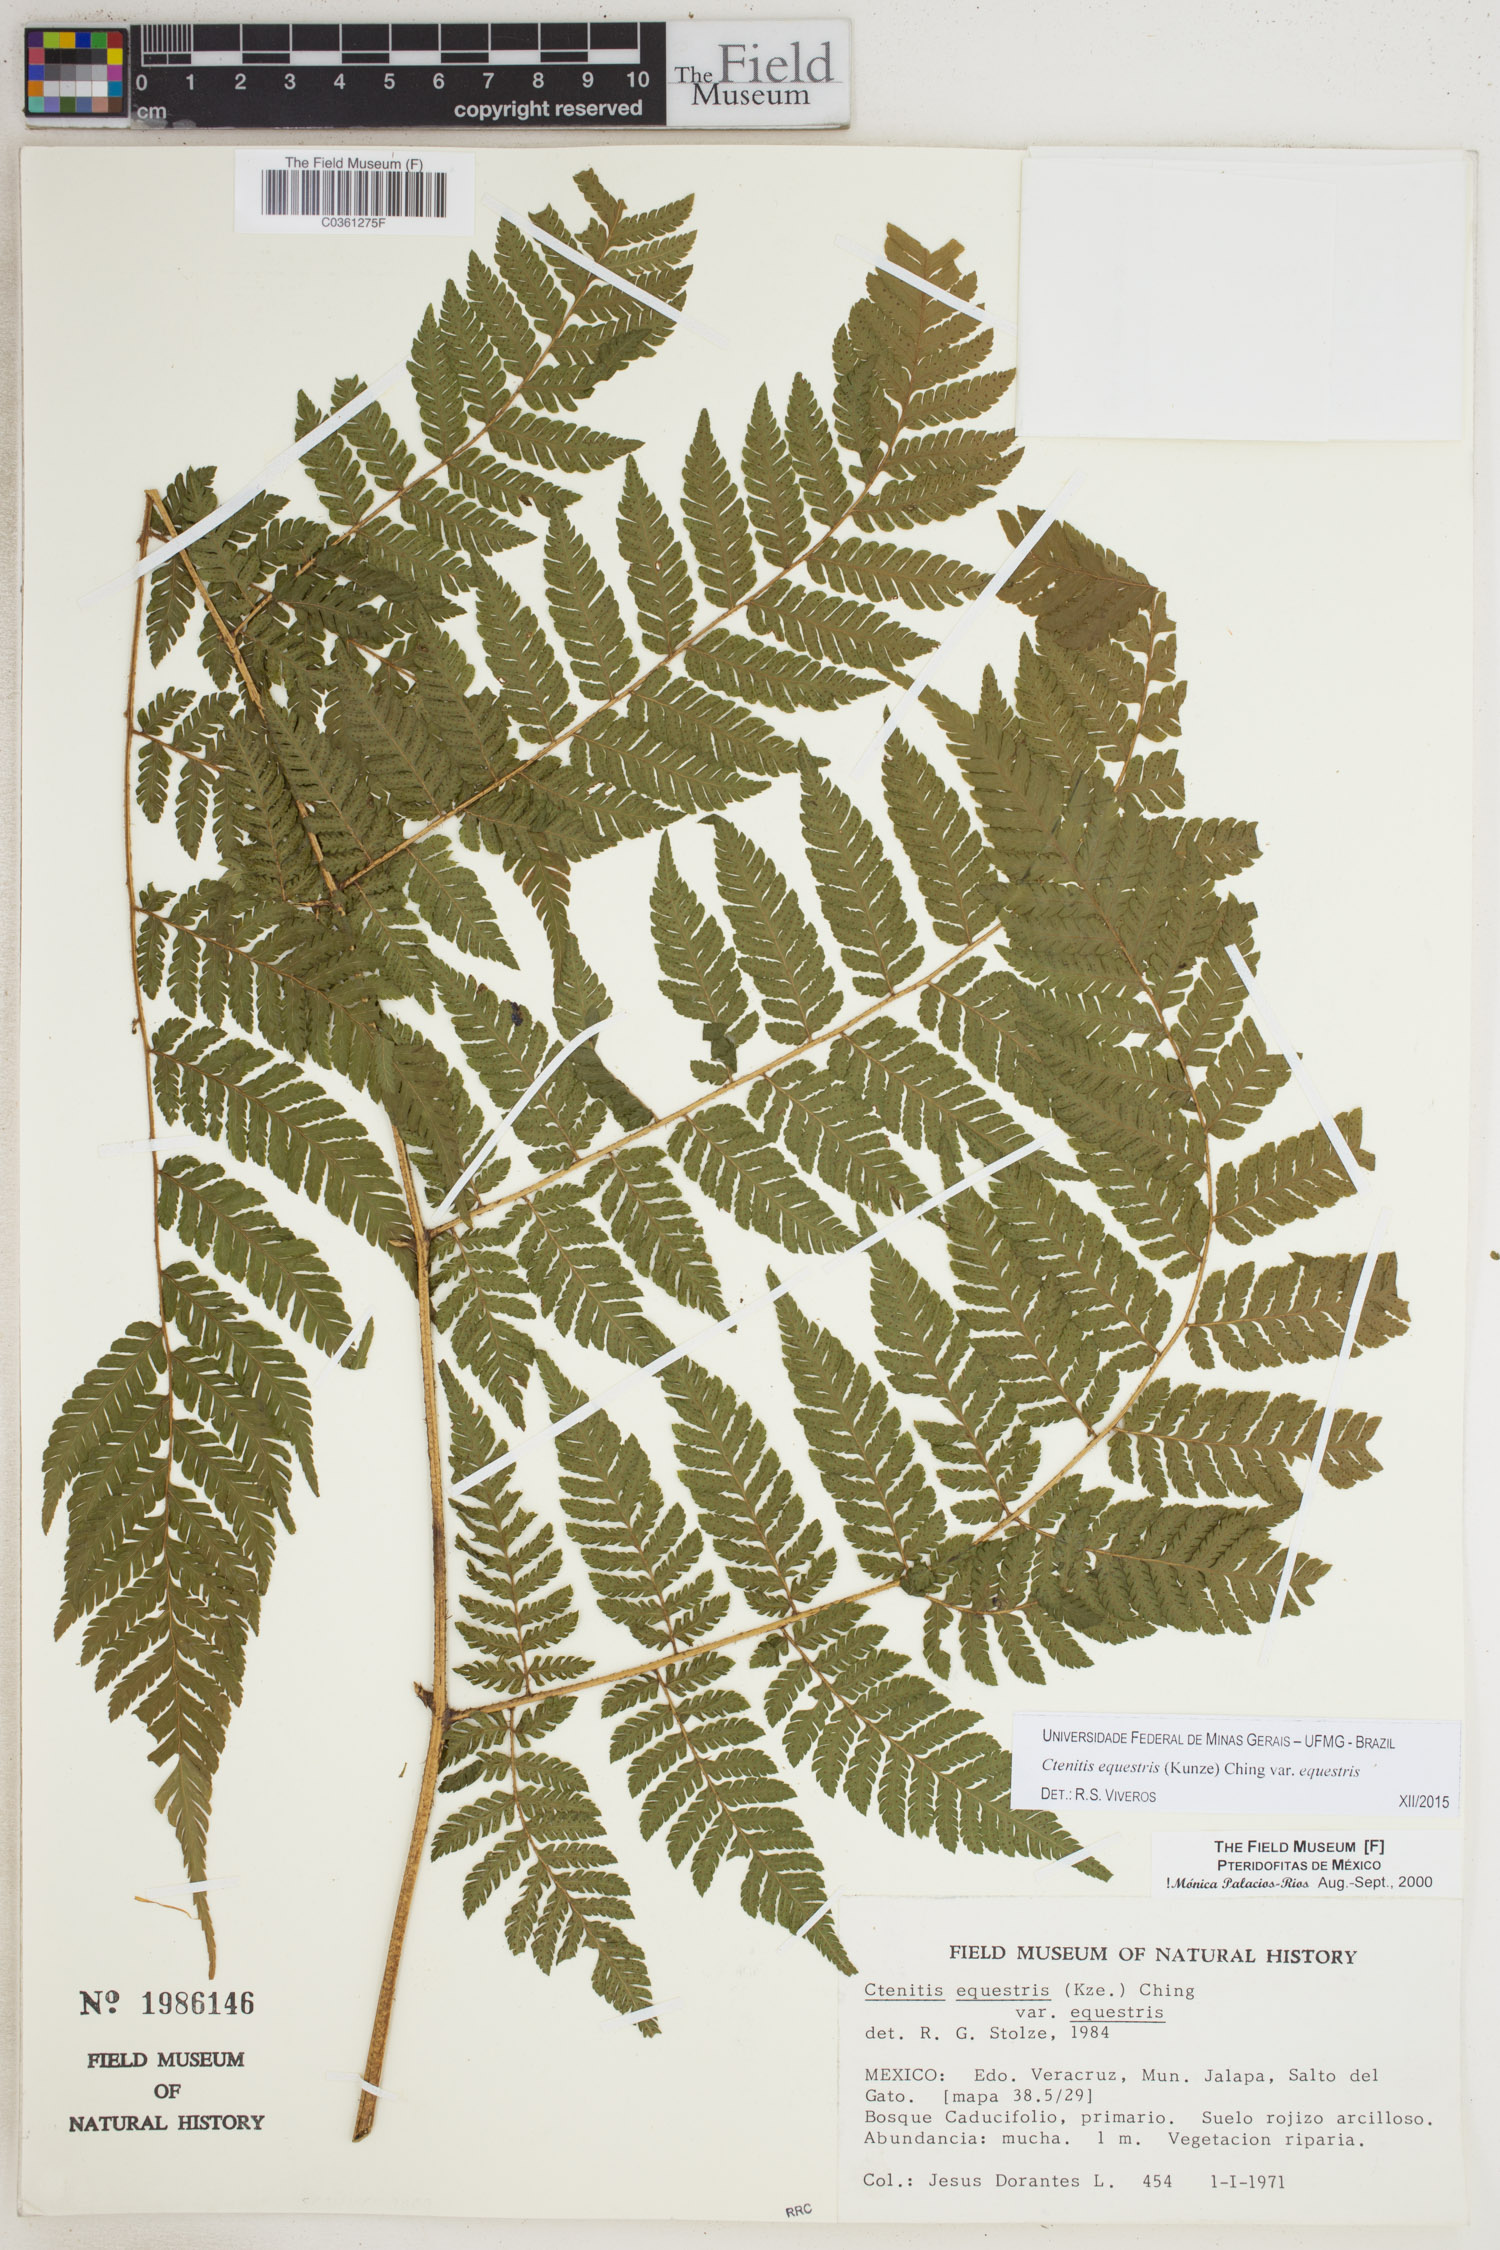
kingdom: Plantae
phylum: Tracheophyta
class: Polypodiopsida
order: Polypodiales
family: Dryopteridaceae
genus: Ctenitis
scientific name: Ctenitis equestris
